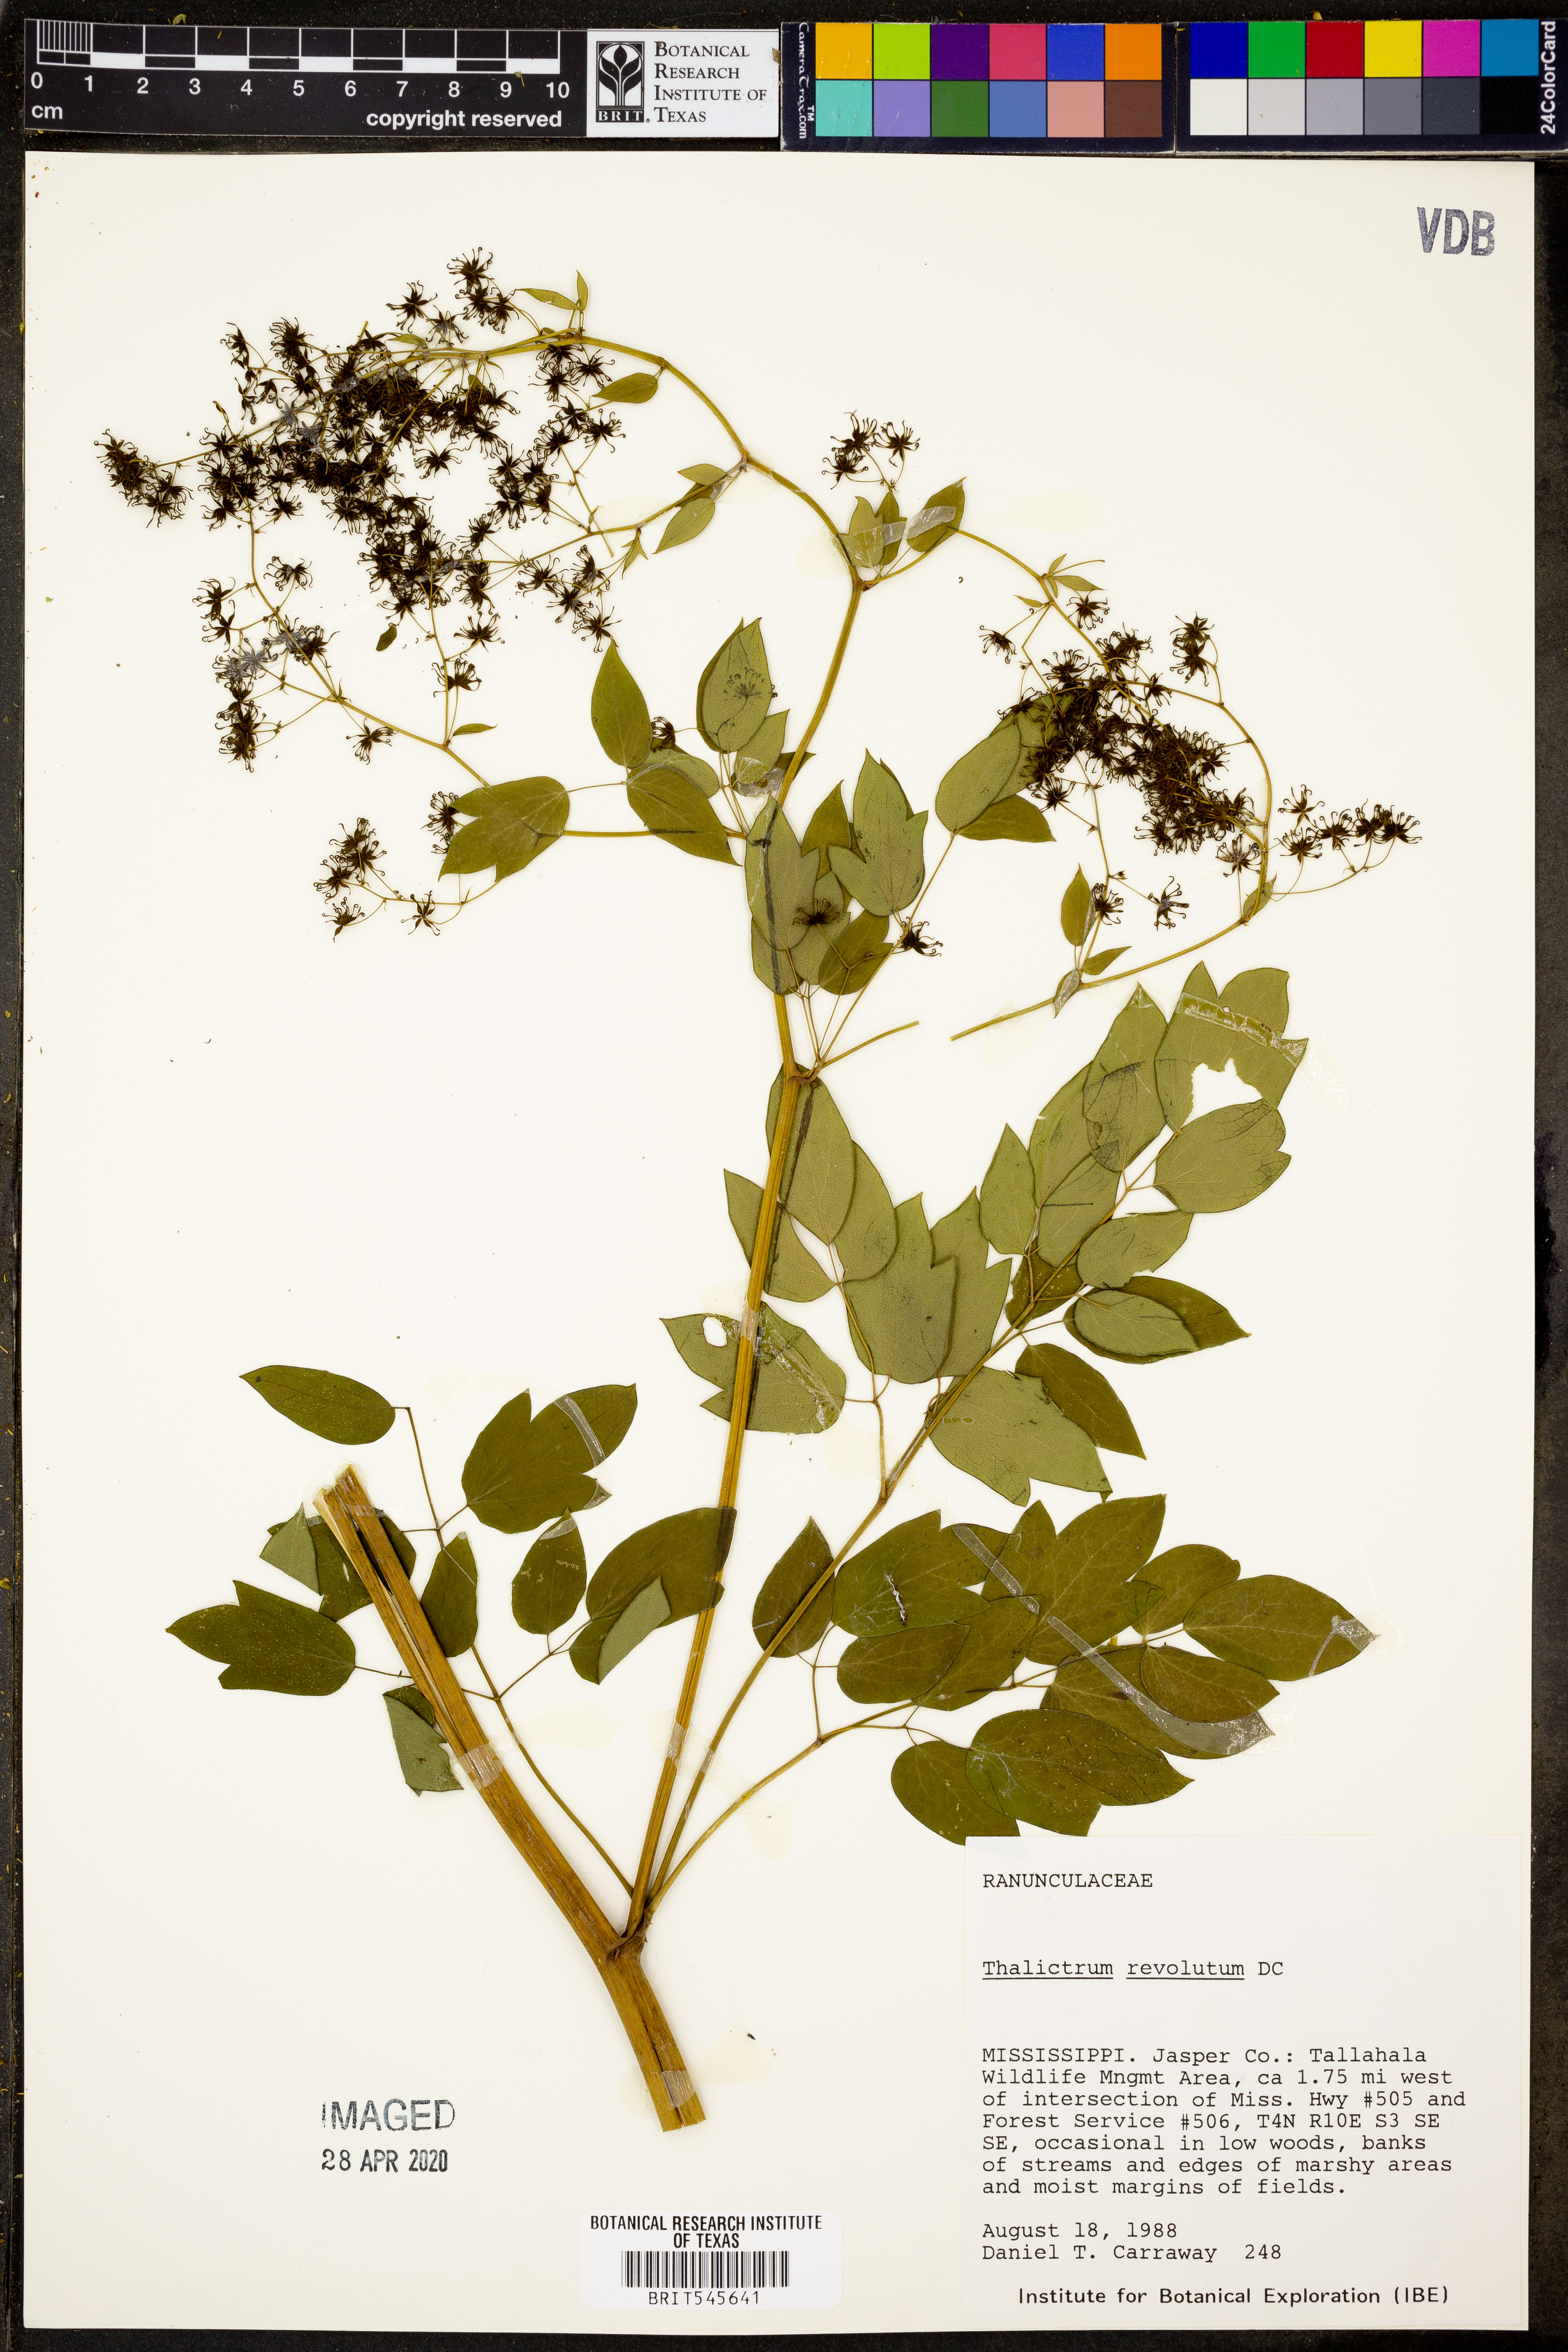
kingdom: Plantae
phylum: Tracheophyta
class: Magnoliopsida
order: Ranunculales
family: Ranunculaceae
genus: Thalictrum
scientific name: Thalictrum revolutum
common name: Waxy meadow-rue
